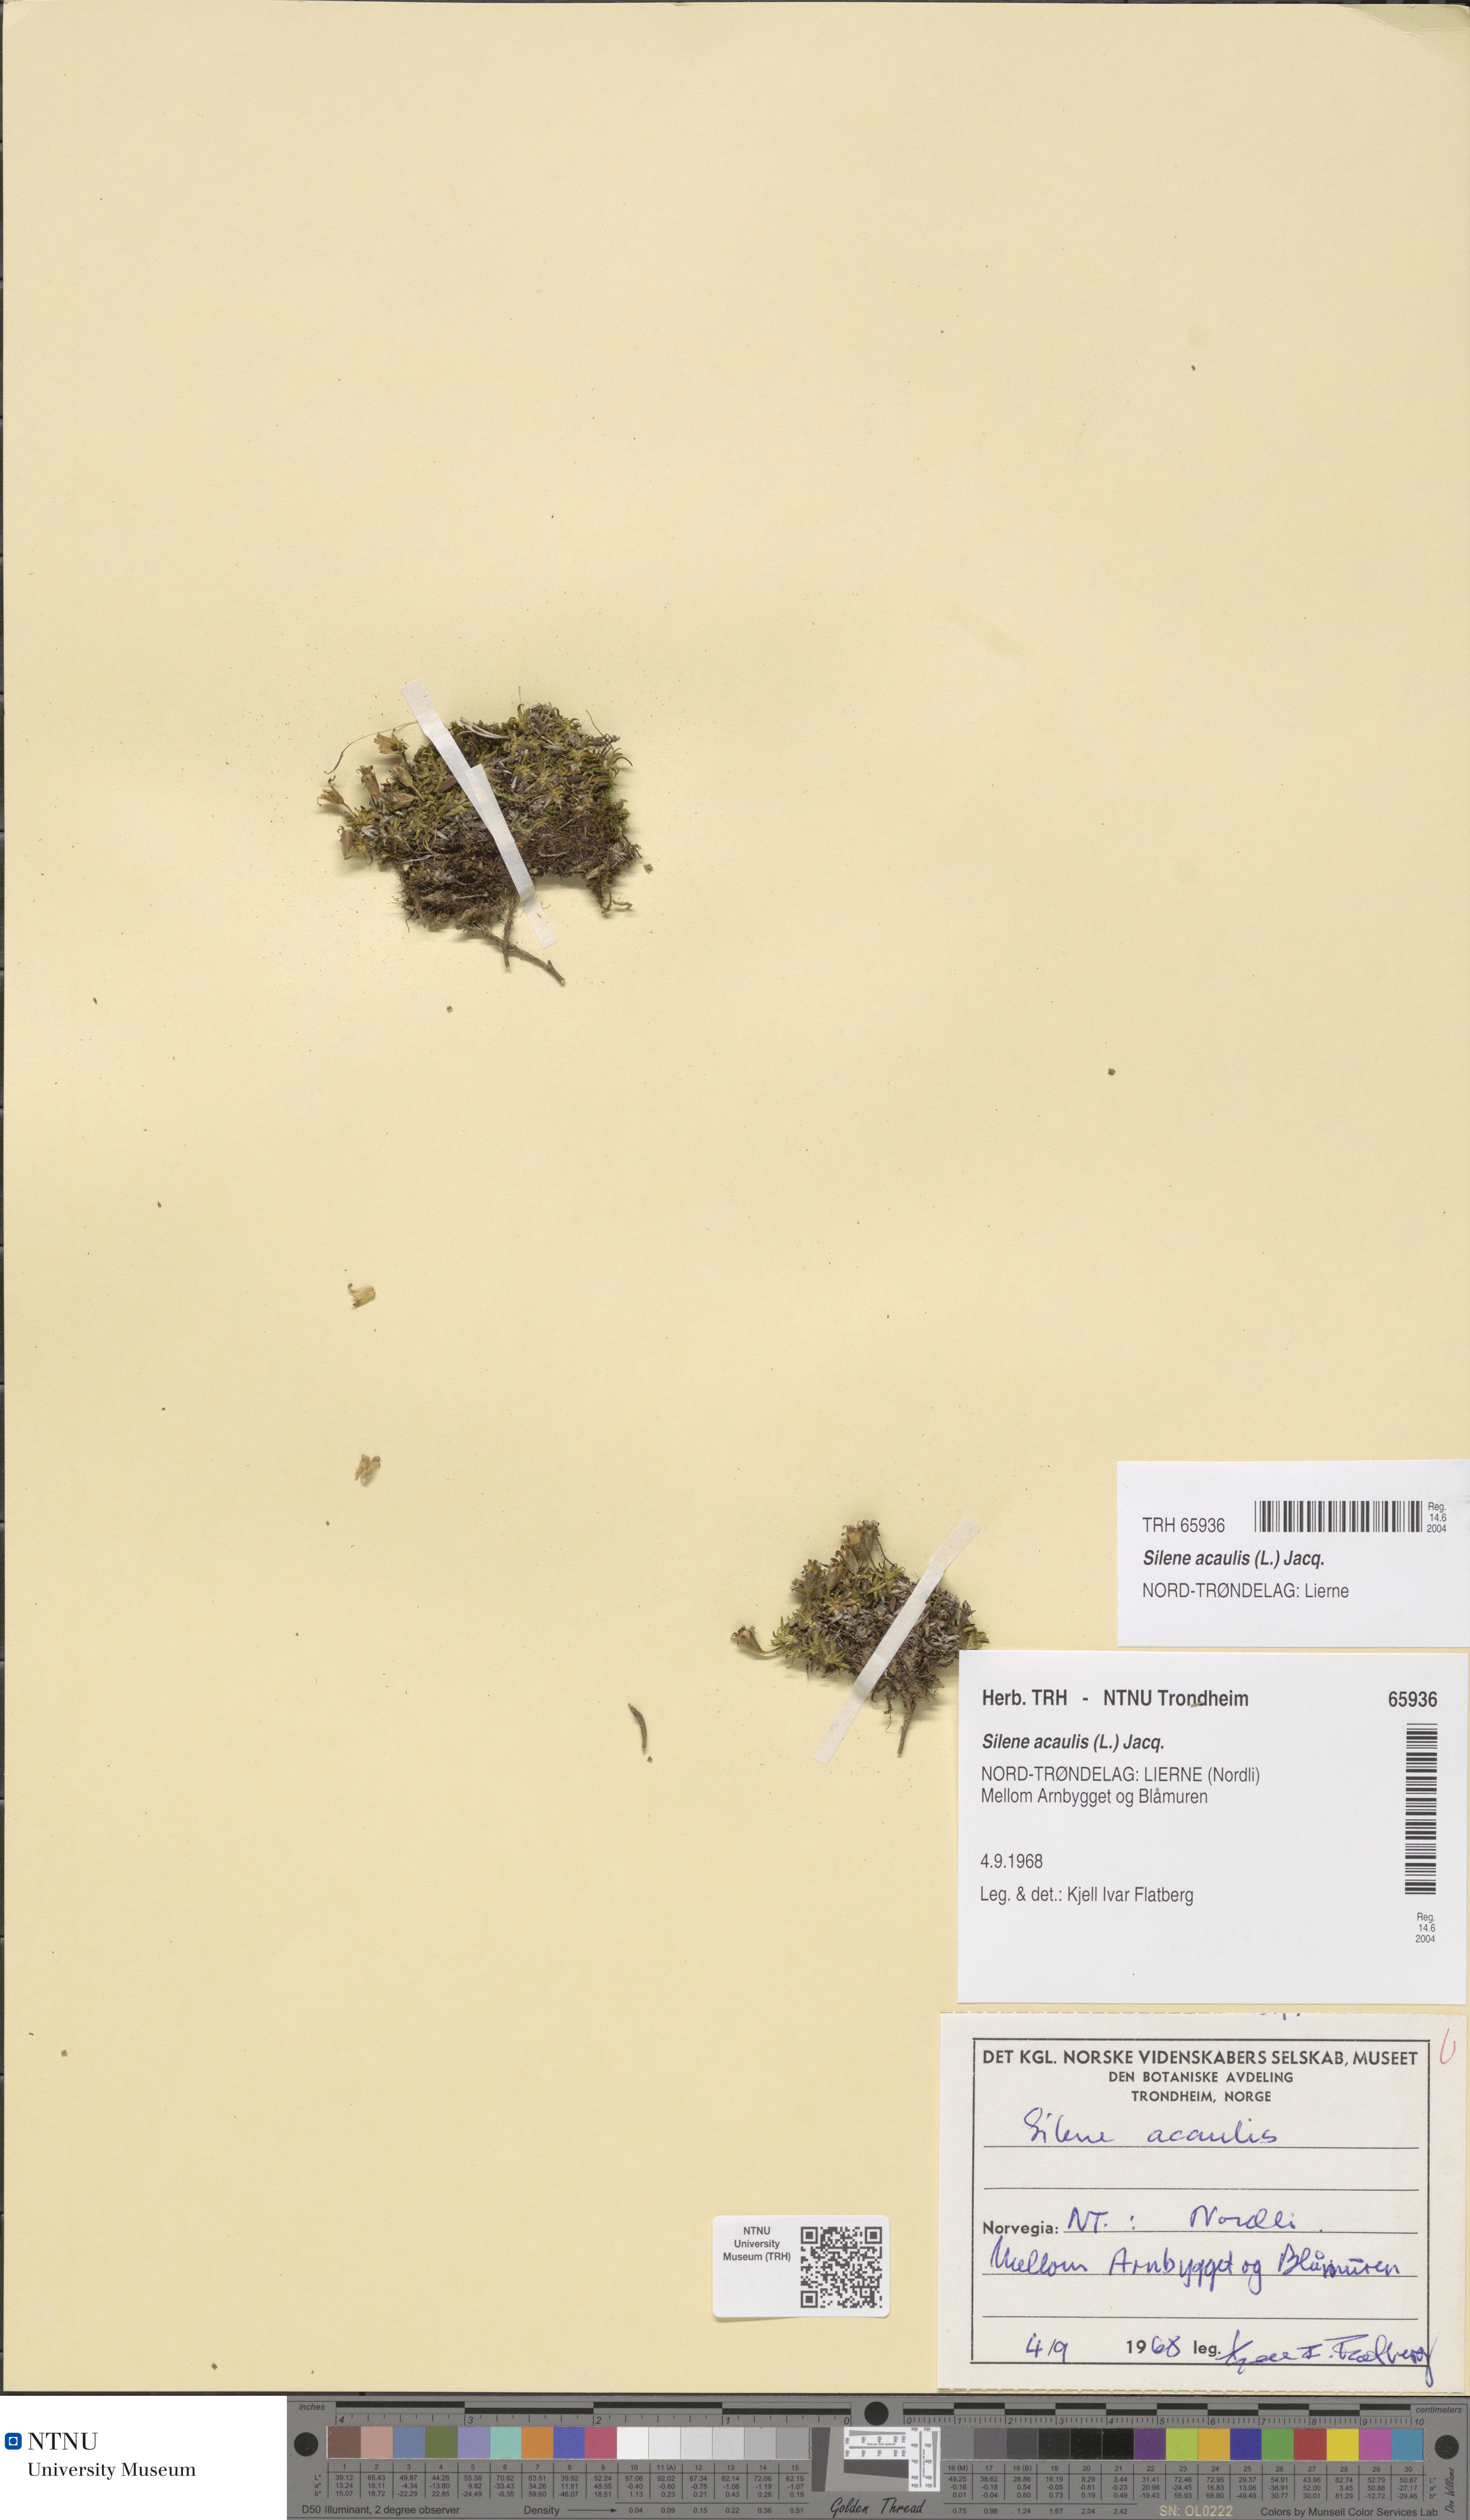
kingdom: Plantae
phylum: Tracheophyta
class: Magnoliopsida
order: Caryophyllales
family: Caryophyllaceae
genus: Silene
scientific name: Silene acaulis
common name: Moss campion
